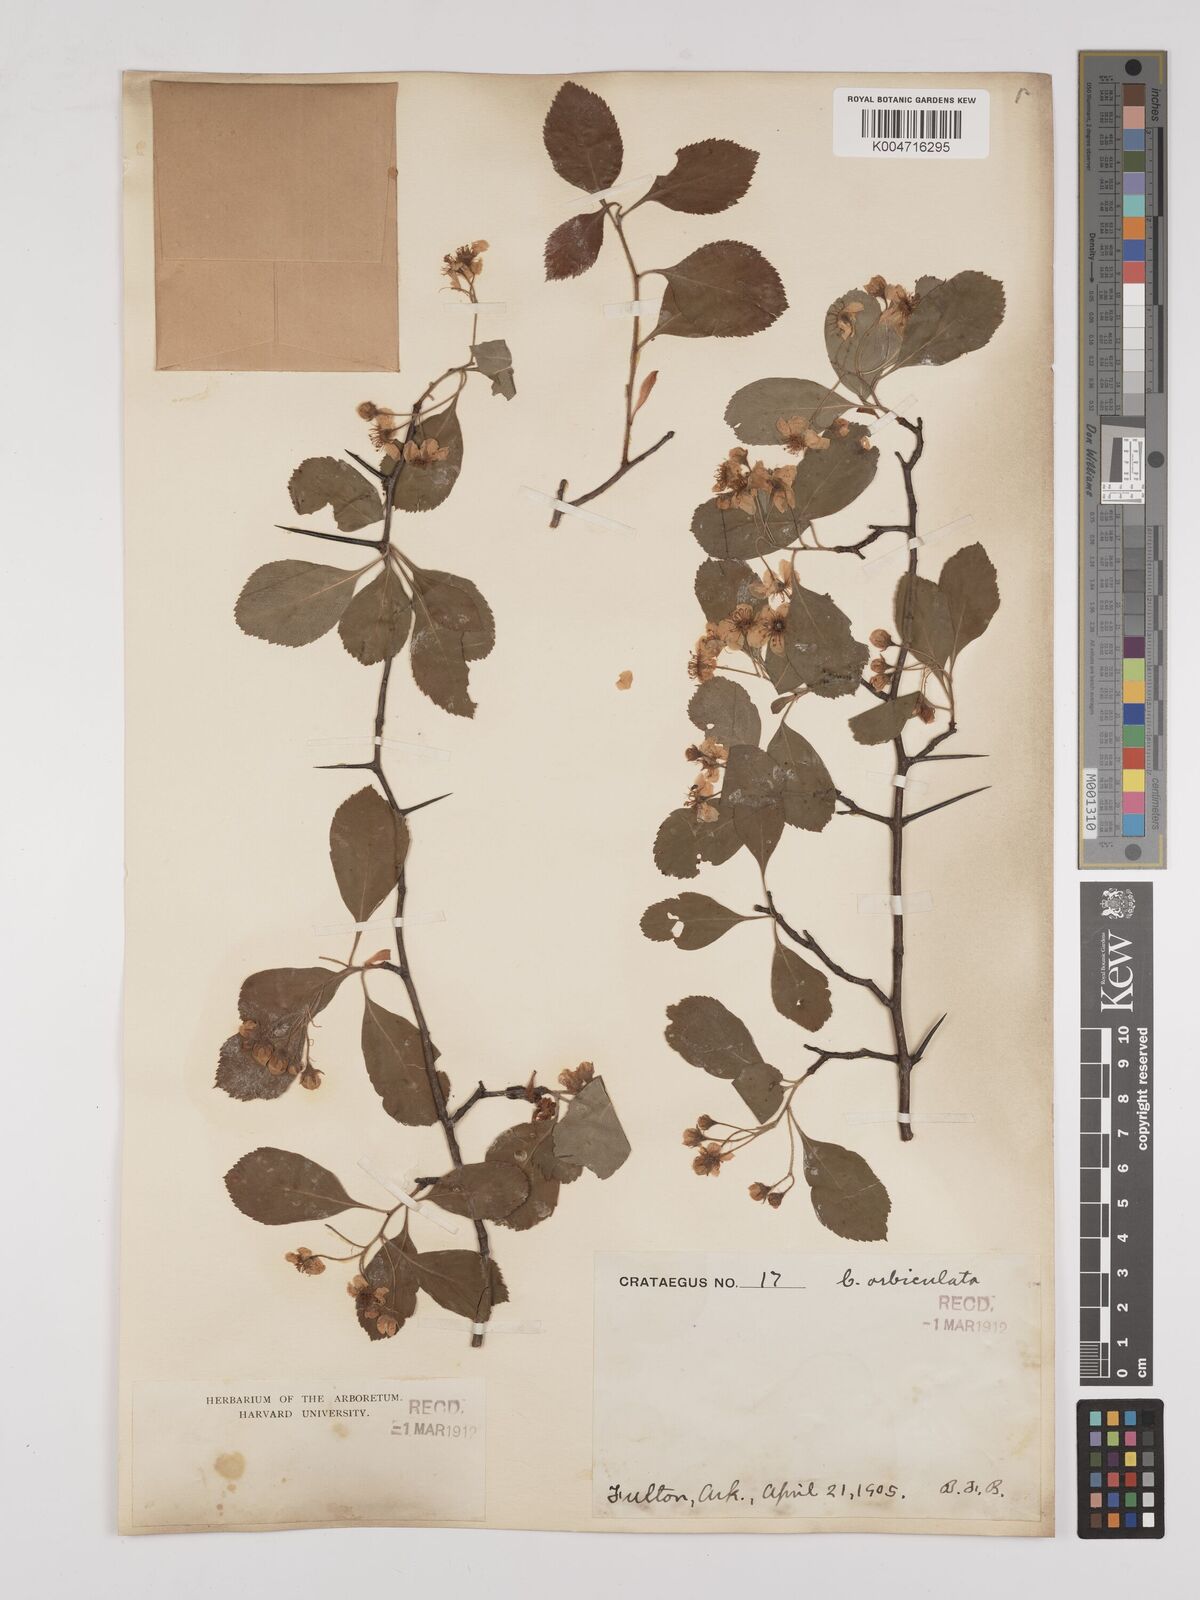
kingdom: Plantae
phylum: Tracheophyta
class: Magnoliopsida
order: Rosales
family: Rosaceae
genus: Crataegus
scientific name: Crataegus
